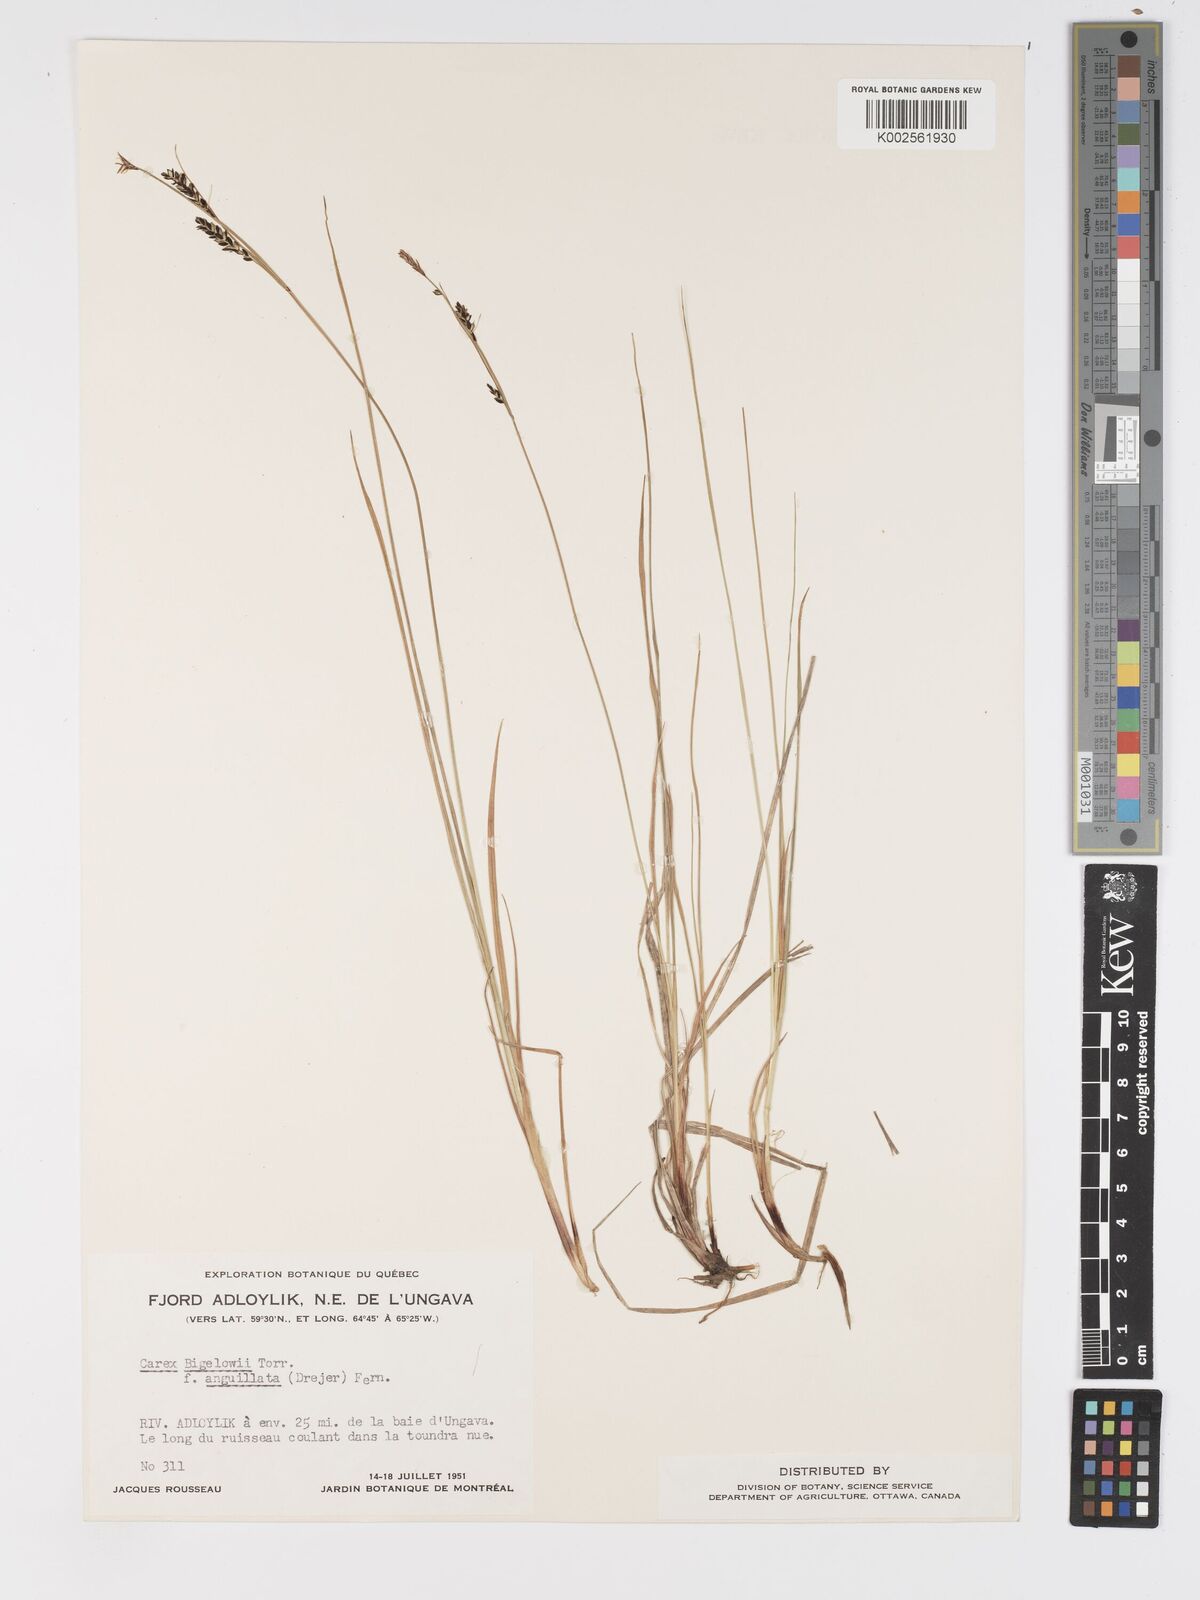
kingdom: Plantae
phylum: Tracheophyta
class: Liliopsida
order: Poales
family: Cyperaceae
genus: Carex
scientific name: Carex dacica
